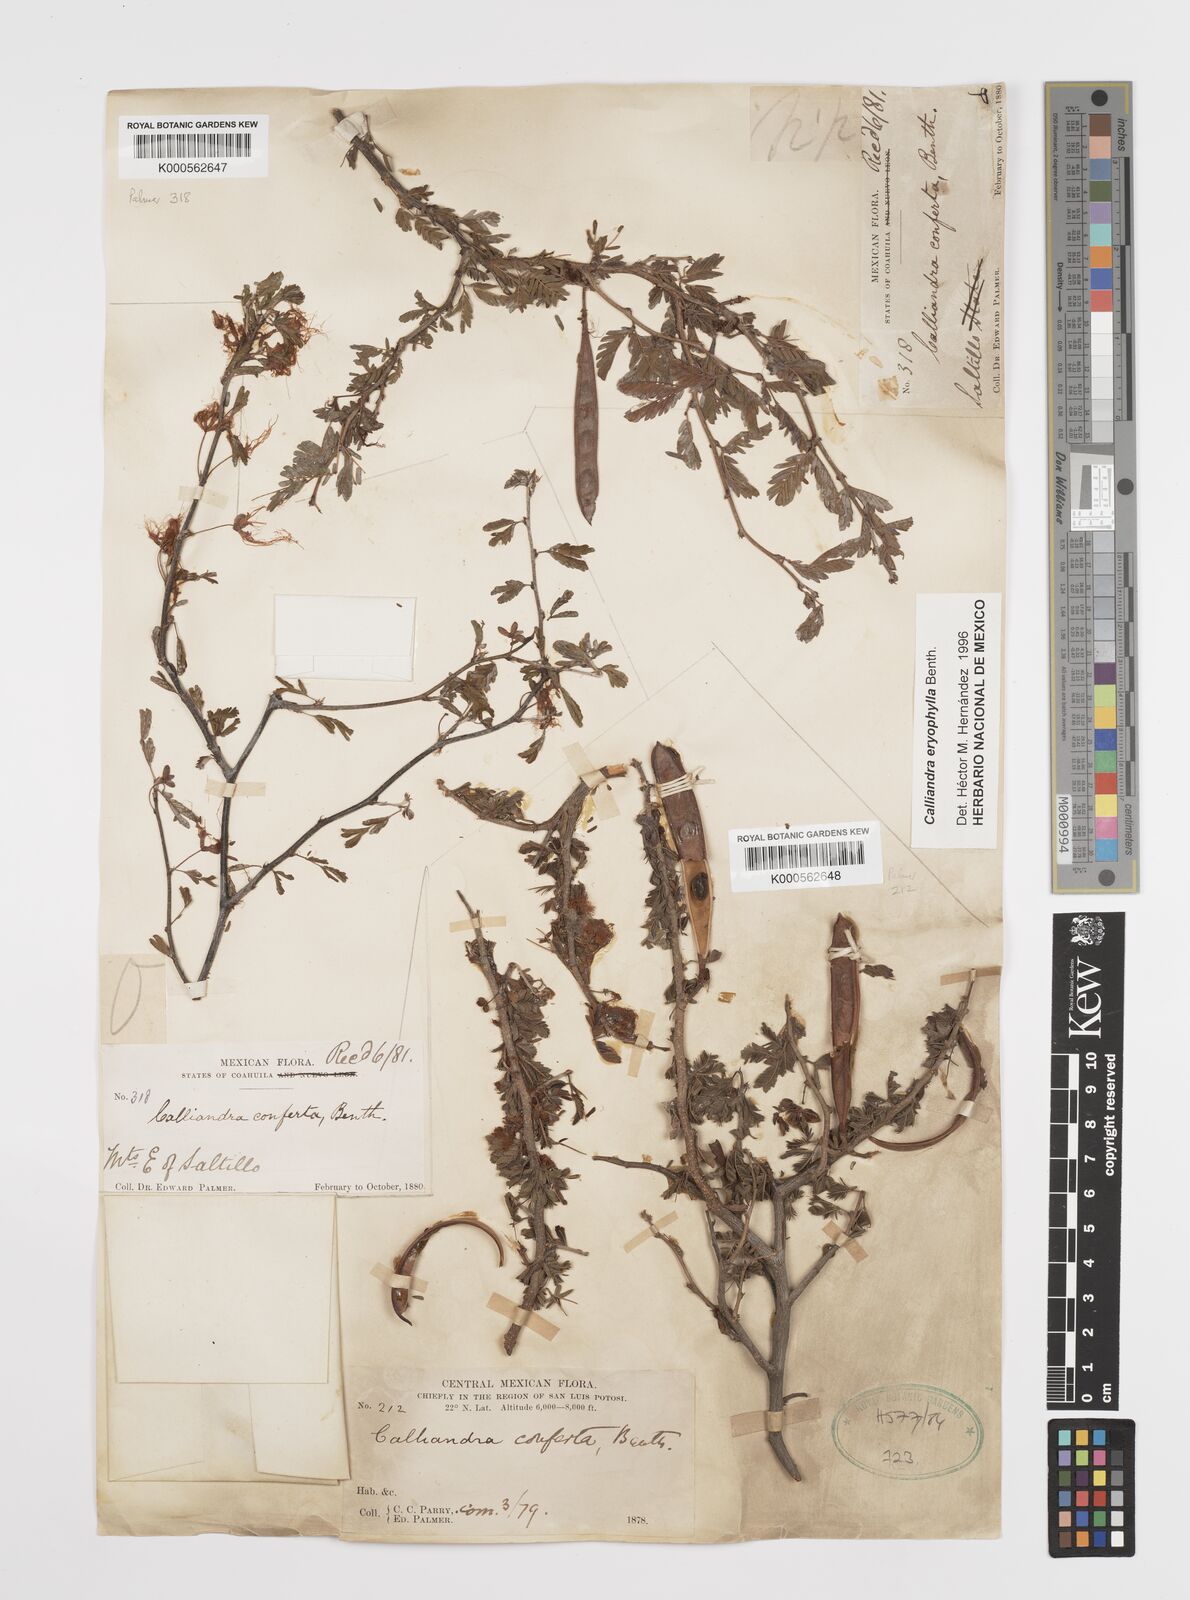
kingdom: Plantae
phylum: Tracheophyta
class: Magnoliopsida
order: Fabales
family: Fabaceae
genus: Calliandra
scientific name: Calliandra eriophylla
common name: Fairy-duster
